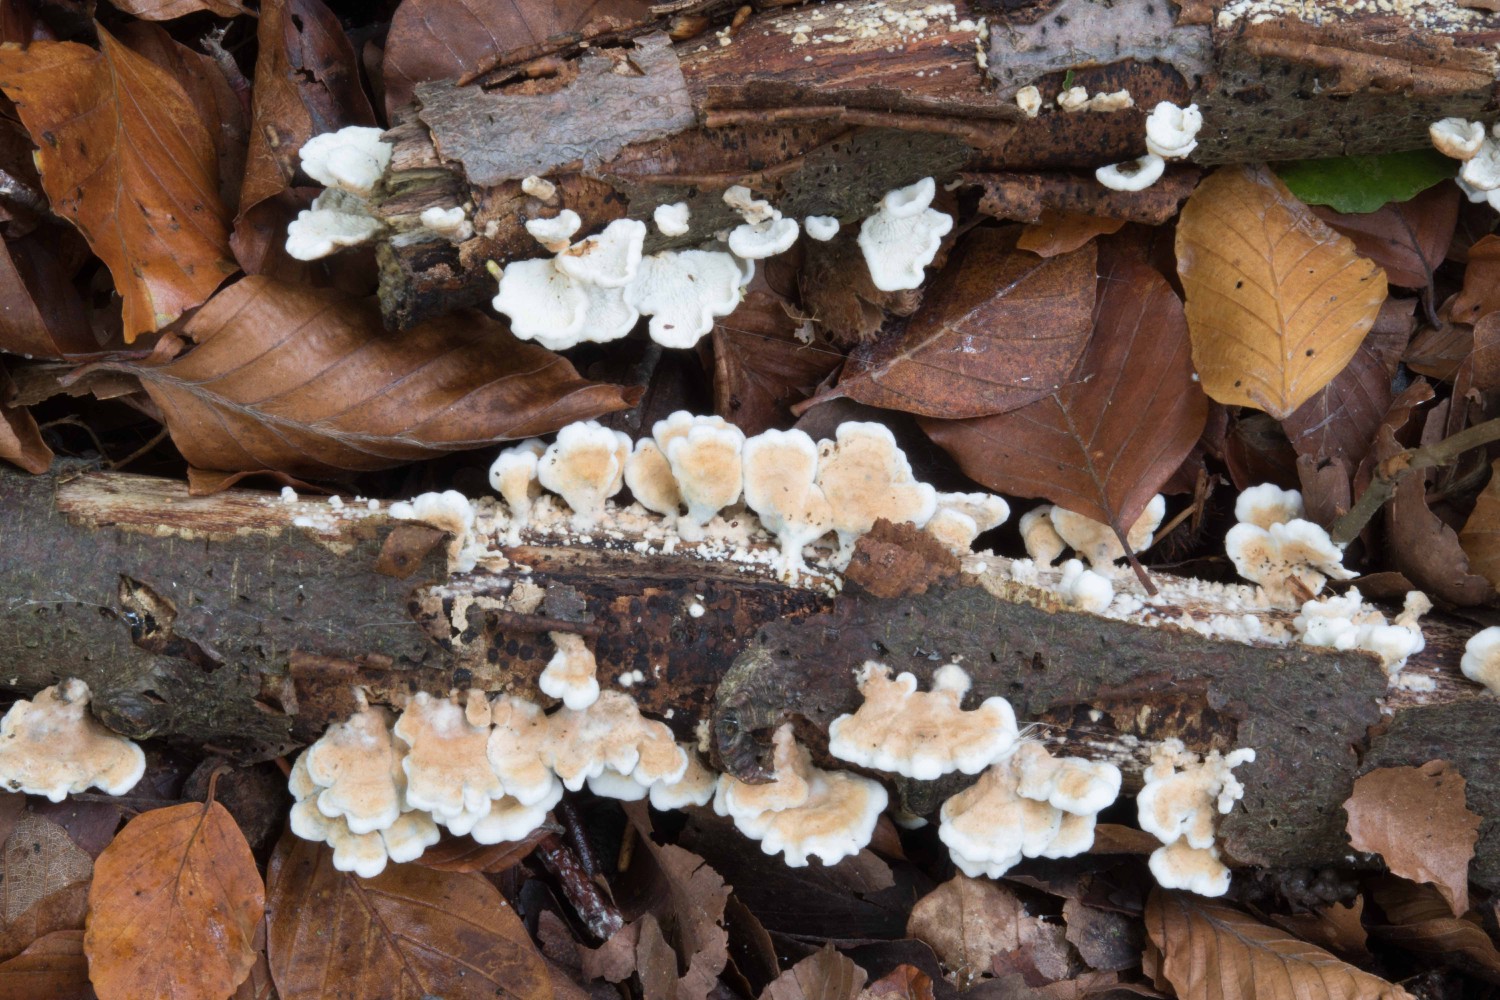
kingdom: Fungi
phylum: Basidiomycota
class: Agaricomycetes
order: Amylocorticiales
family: Amylocorticiaceae
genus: Plicaturopsis
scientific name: Plicaturopsis crispa
